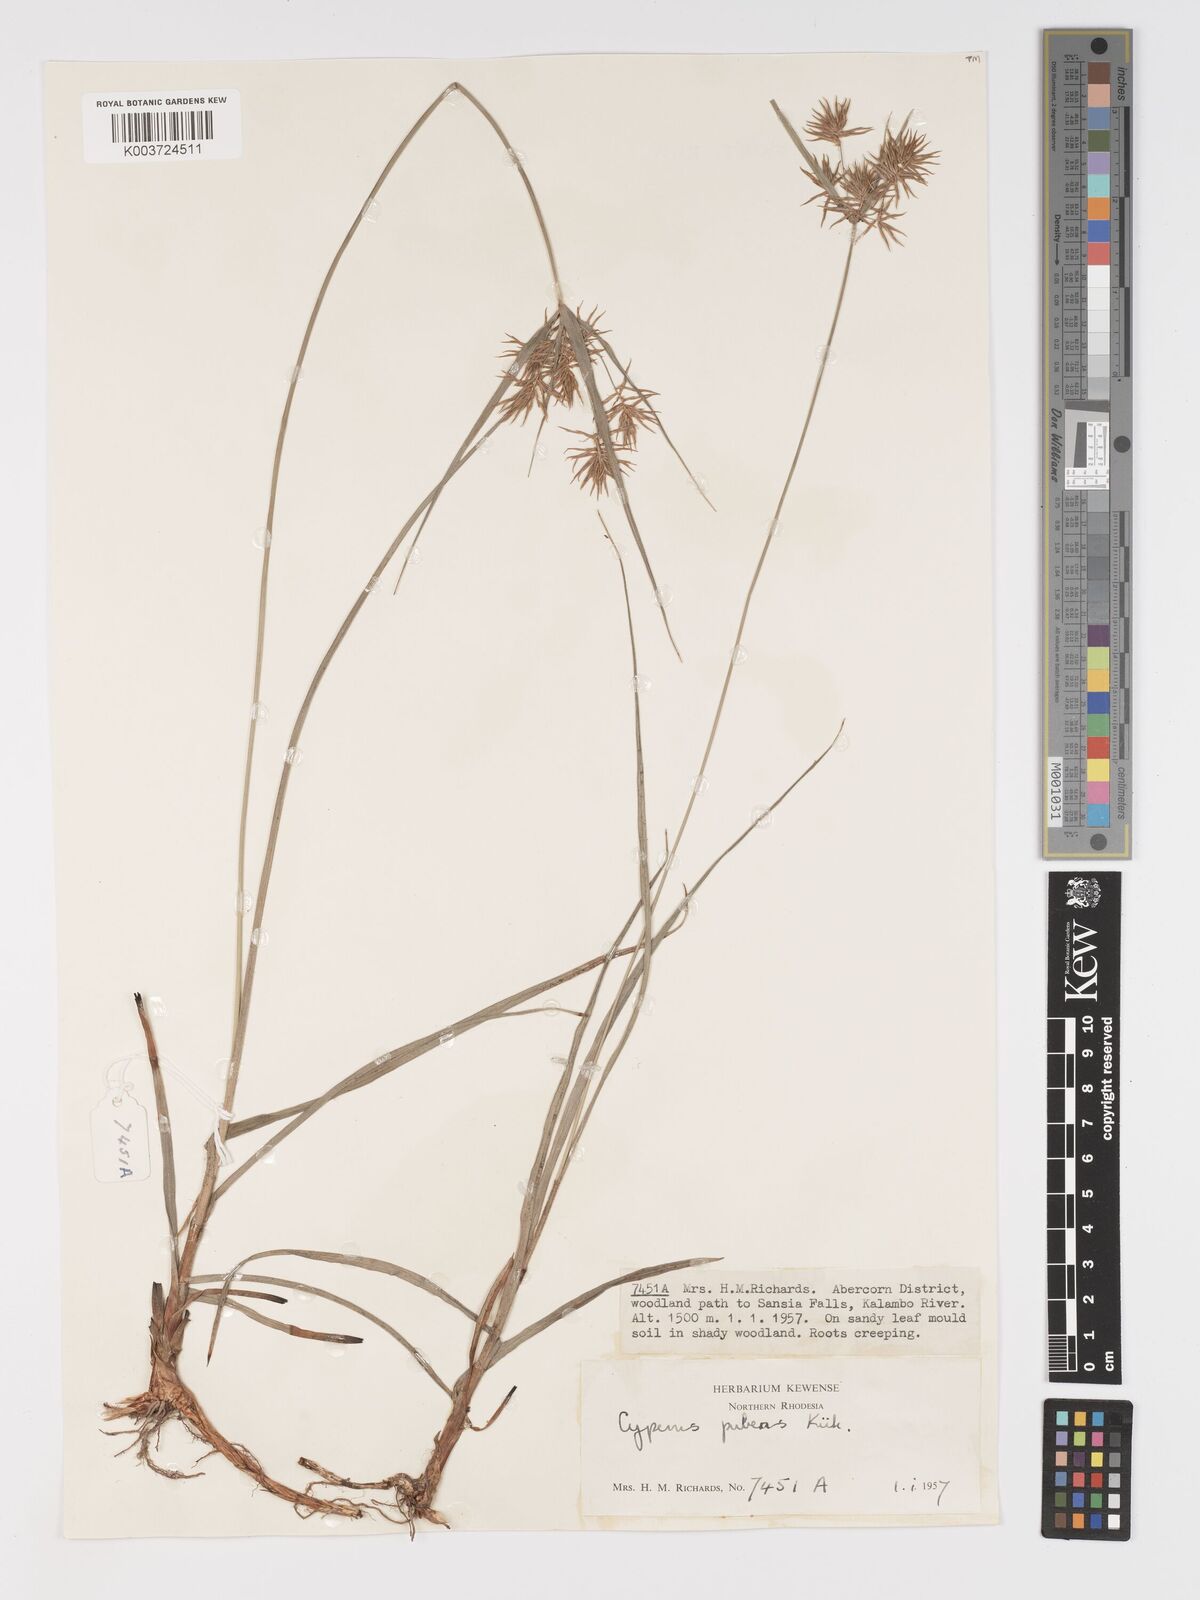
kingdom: Plantae
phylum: Tracheophyta
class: Liliopsida
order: Poales
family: Cyperaceae
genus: Cyperus
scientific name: Cyperus pubens
